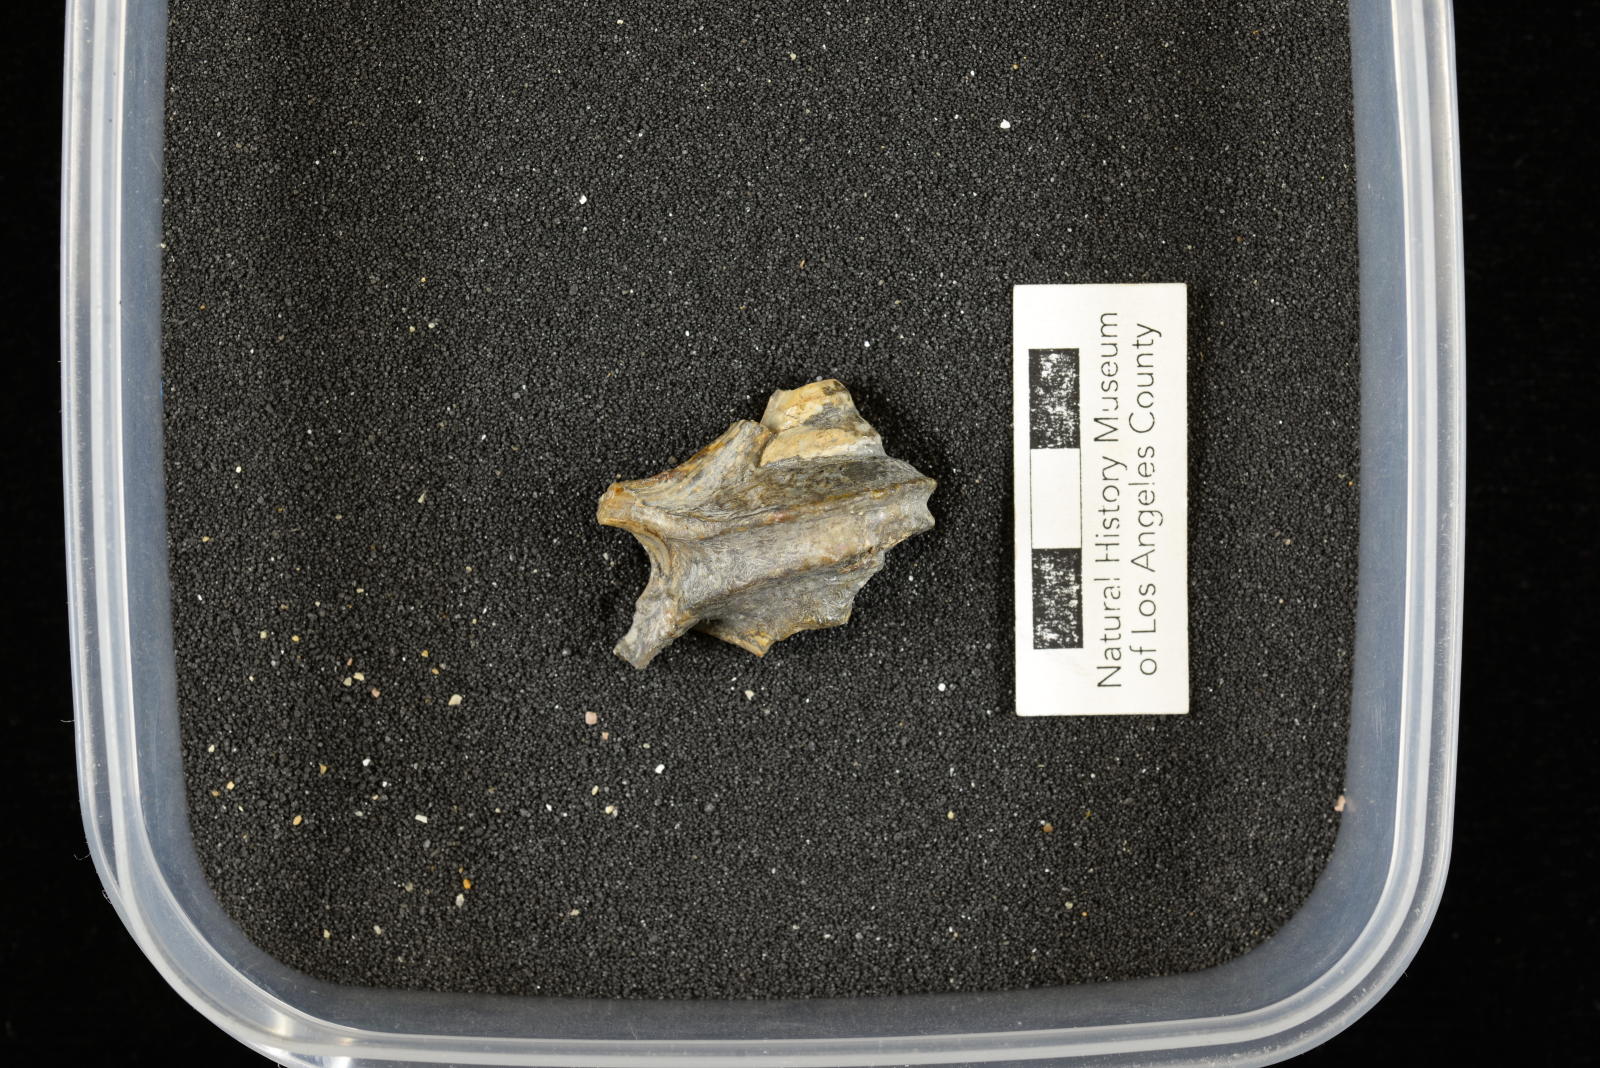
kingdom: Animalia
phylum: Mollusca
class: Gastropoda
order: Littorinimorpha
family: Aporrhaidae
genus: Tessarolax
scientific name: Tessarolax gabbi
